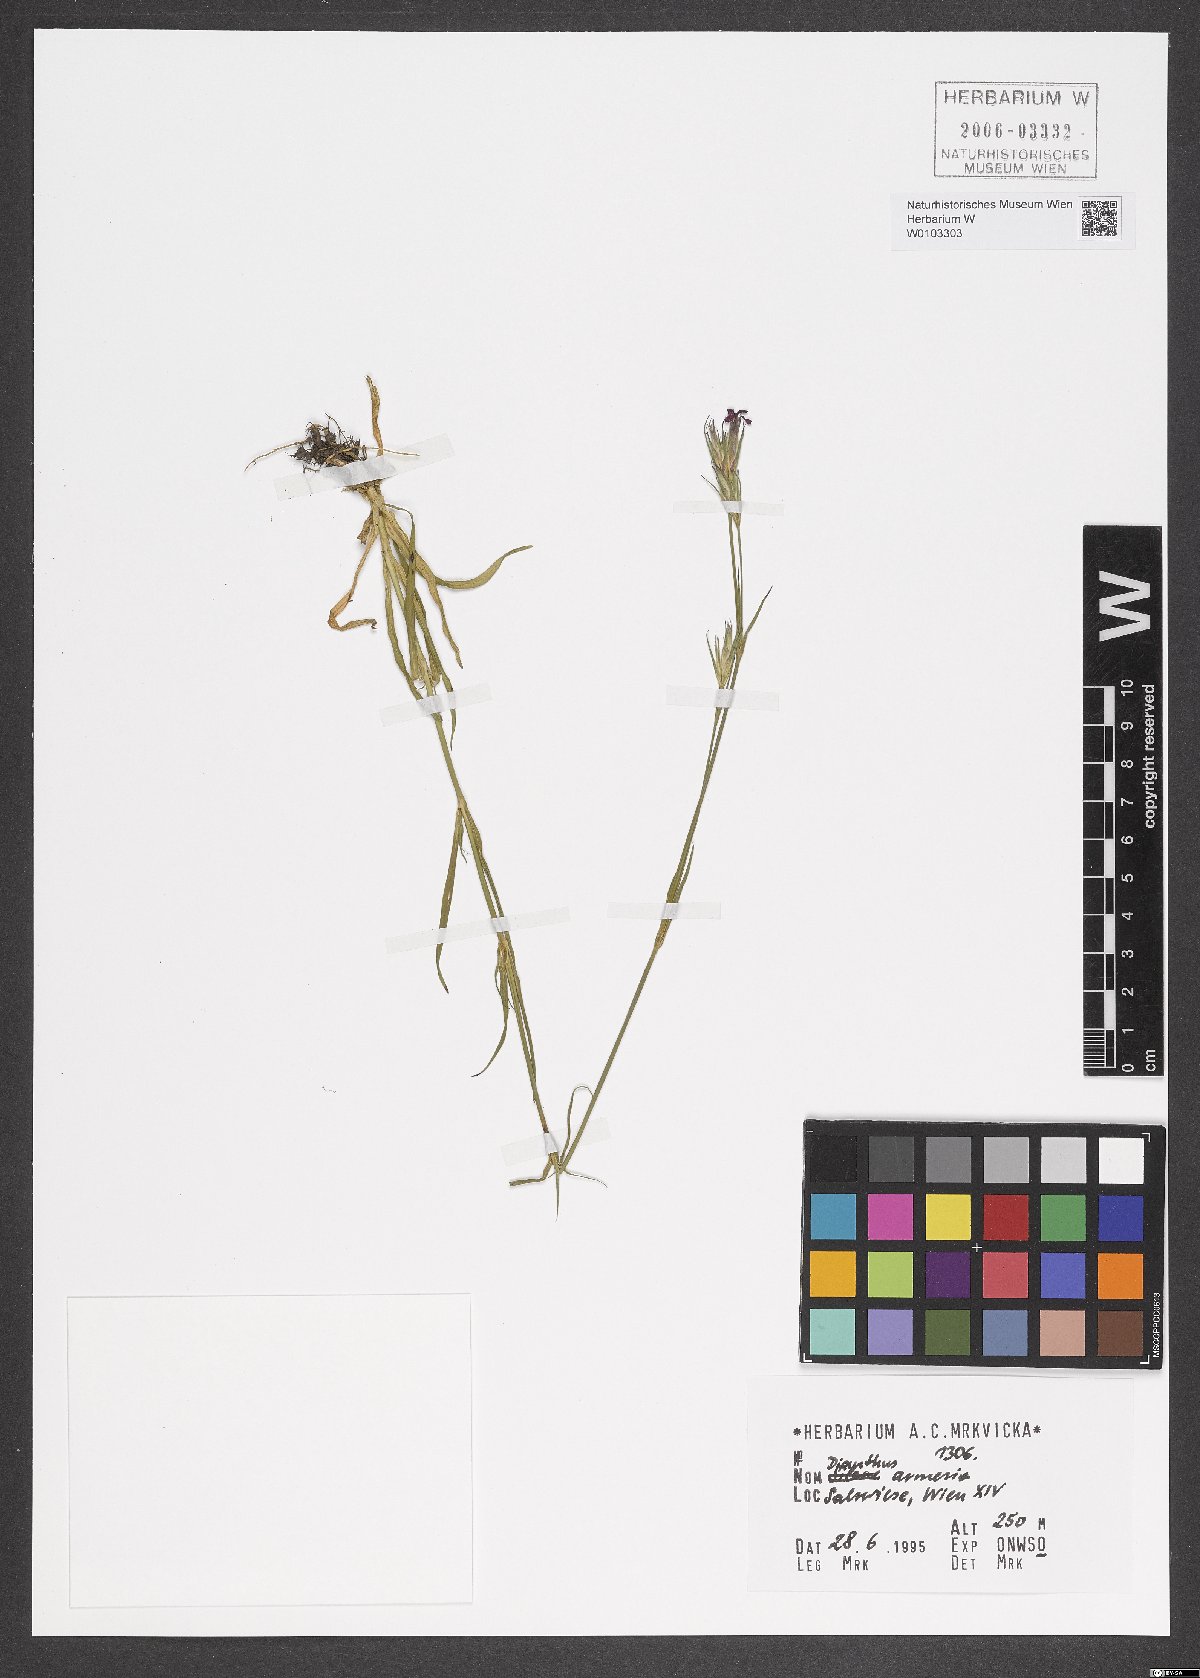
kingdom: Plantae
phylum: Tracheophyta
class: Magnoliopsida
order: Caryophyllales
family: Caryophyllaceae
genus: Dianthus
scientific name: Dianthus armeria
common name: Deptford pink
